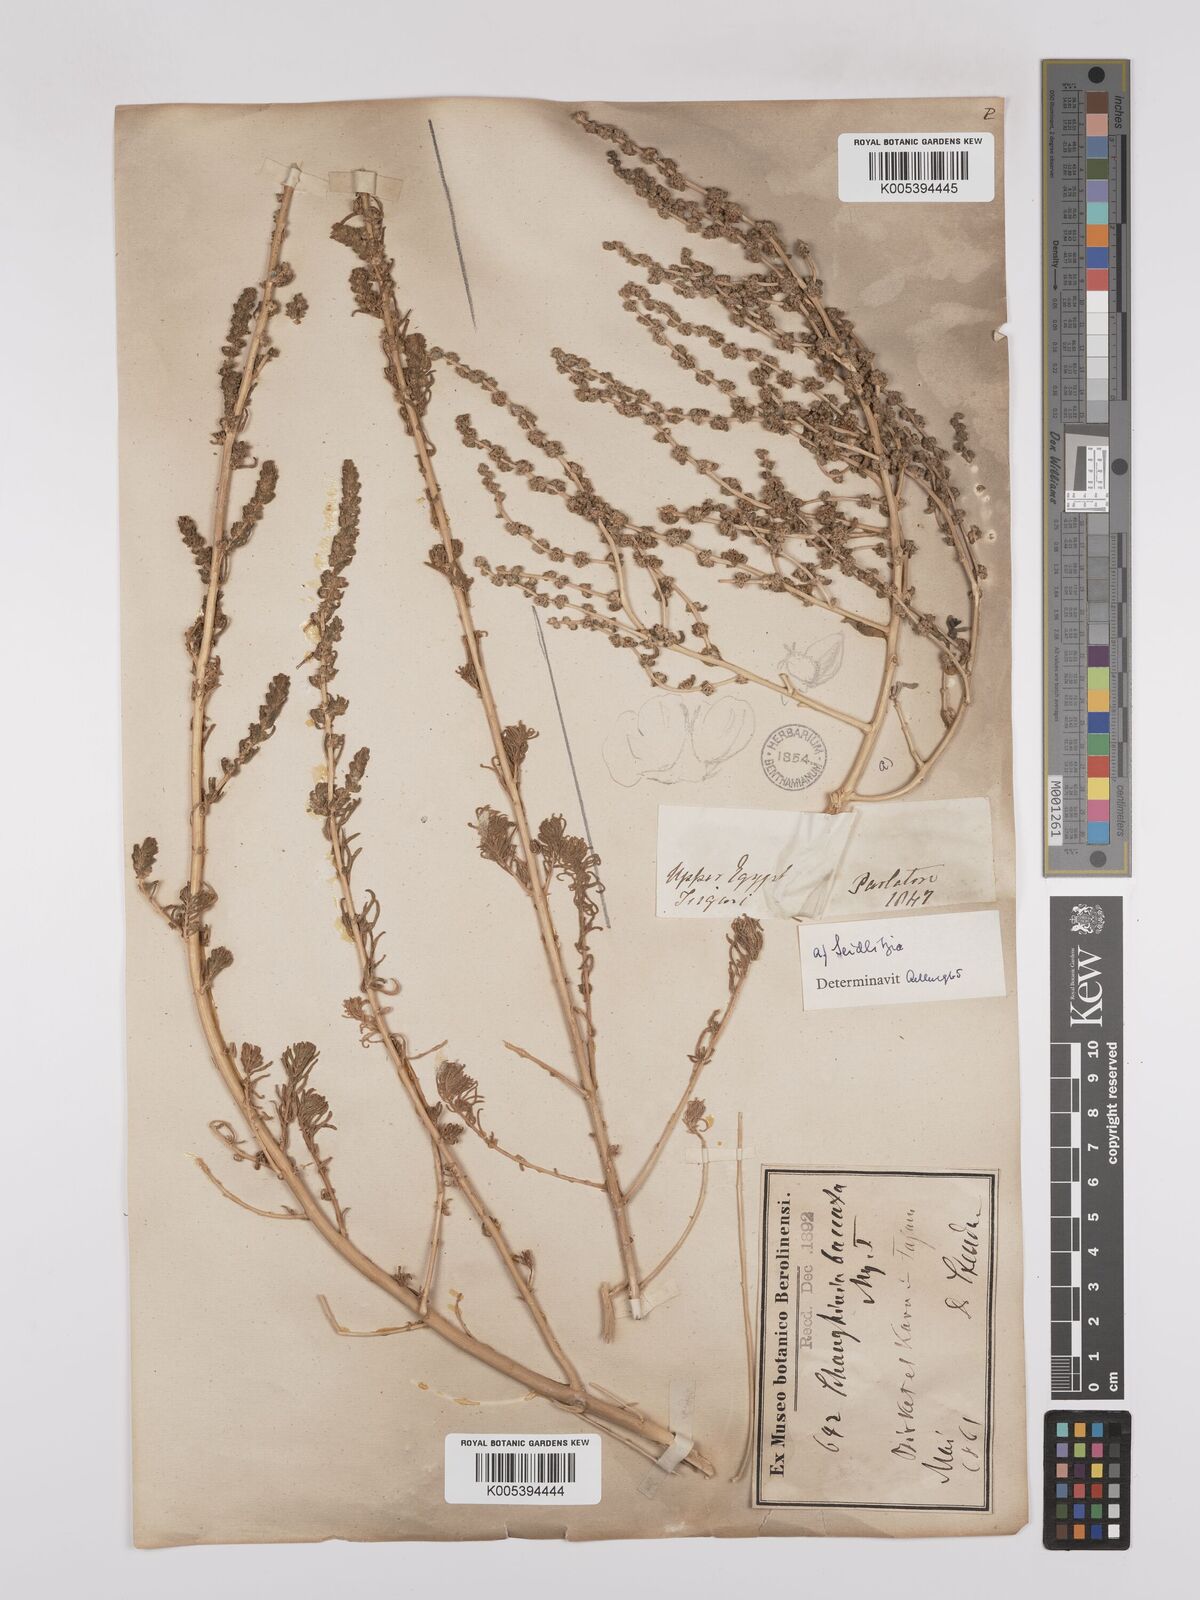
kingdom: Plantae
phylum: Tracheophyta
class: Magnoliopsida
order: Caryophyllales
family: Amaranthaceae
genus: Suaeda
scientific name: Suaeda aegyptiaca
